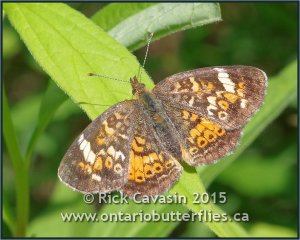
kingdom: Animalia
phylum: Arthropoda
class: Insecta
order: Lepidoptera
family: Nymphalidae
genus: Phyciodes
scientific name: Phyciodes tharos
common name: Northern Crescent
